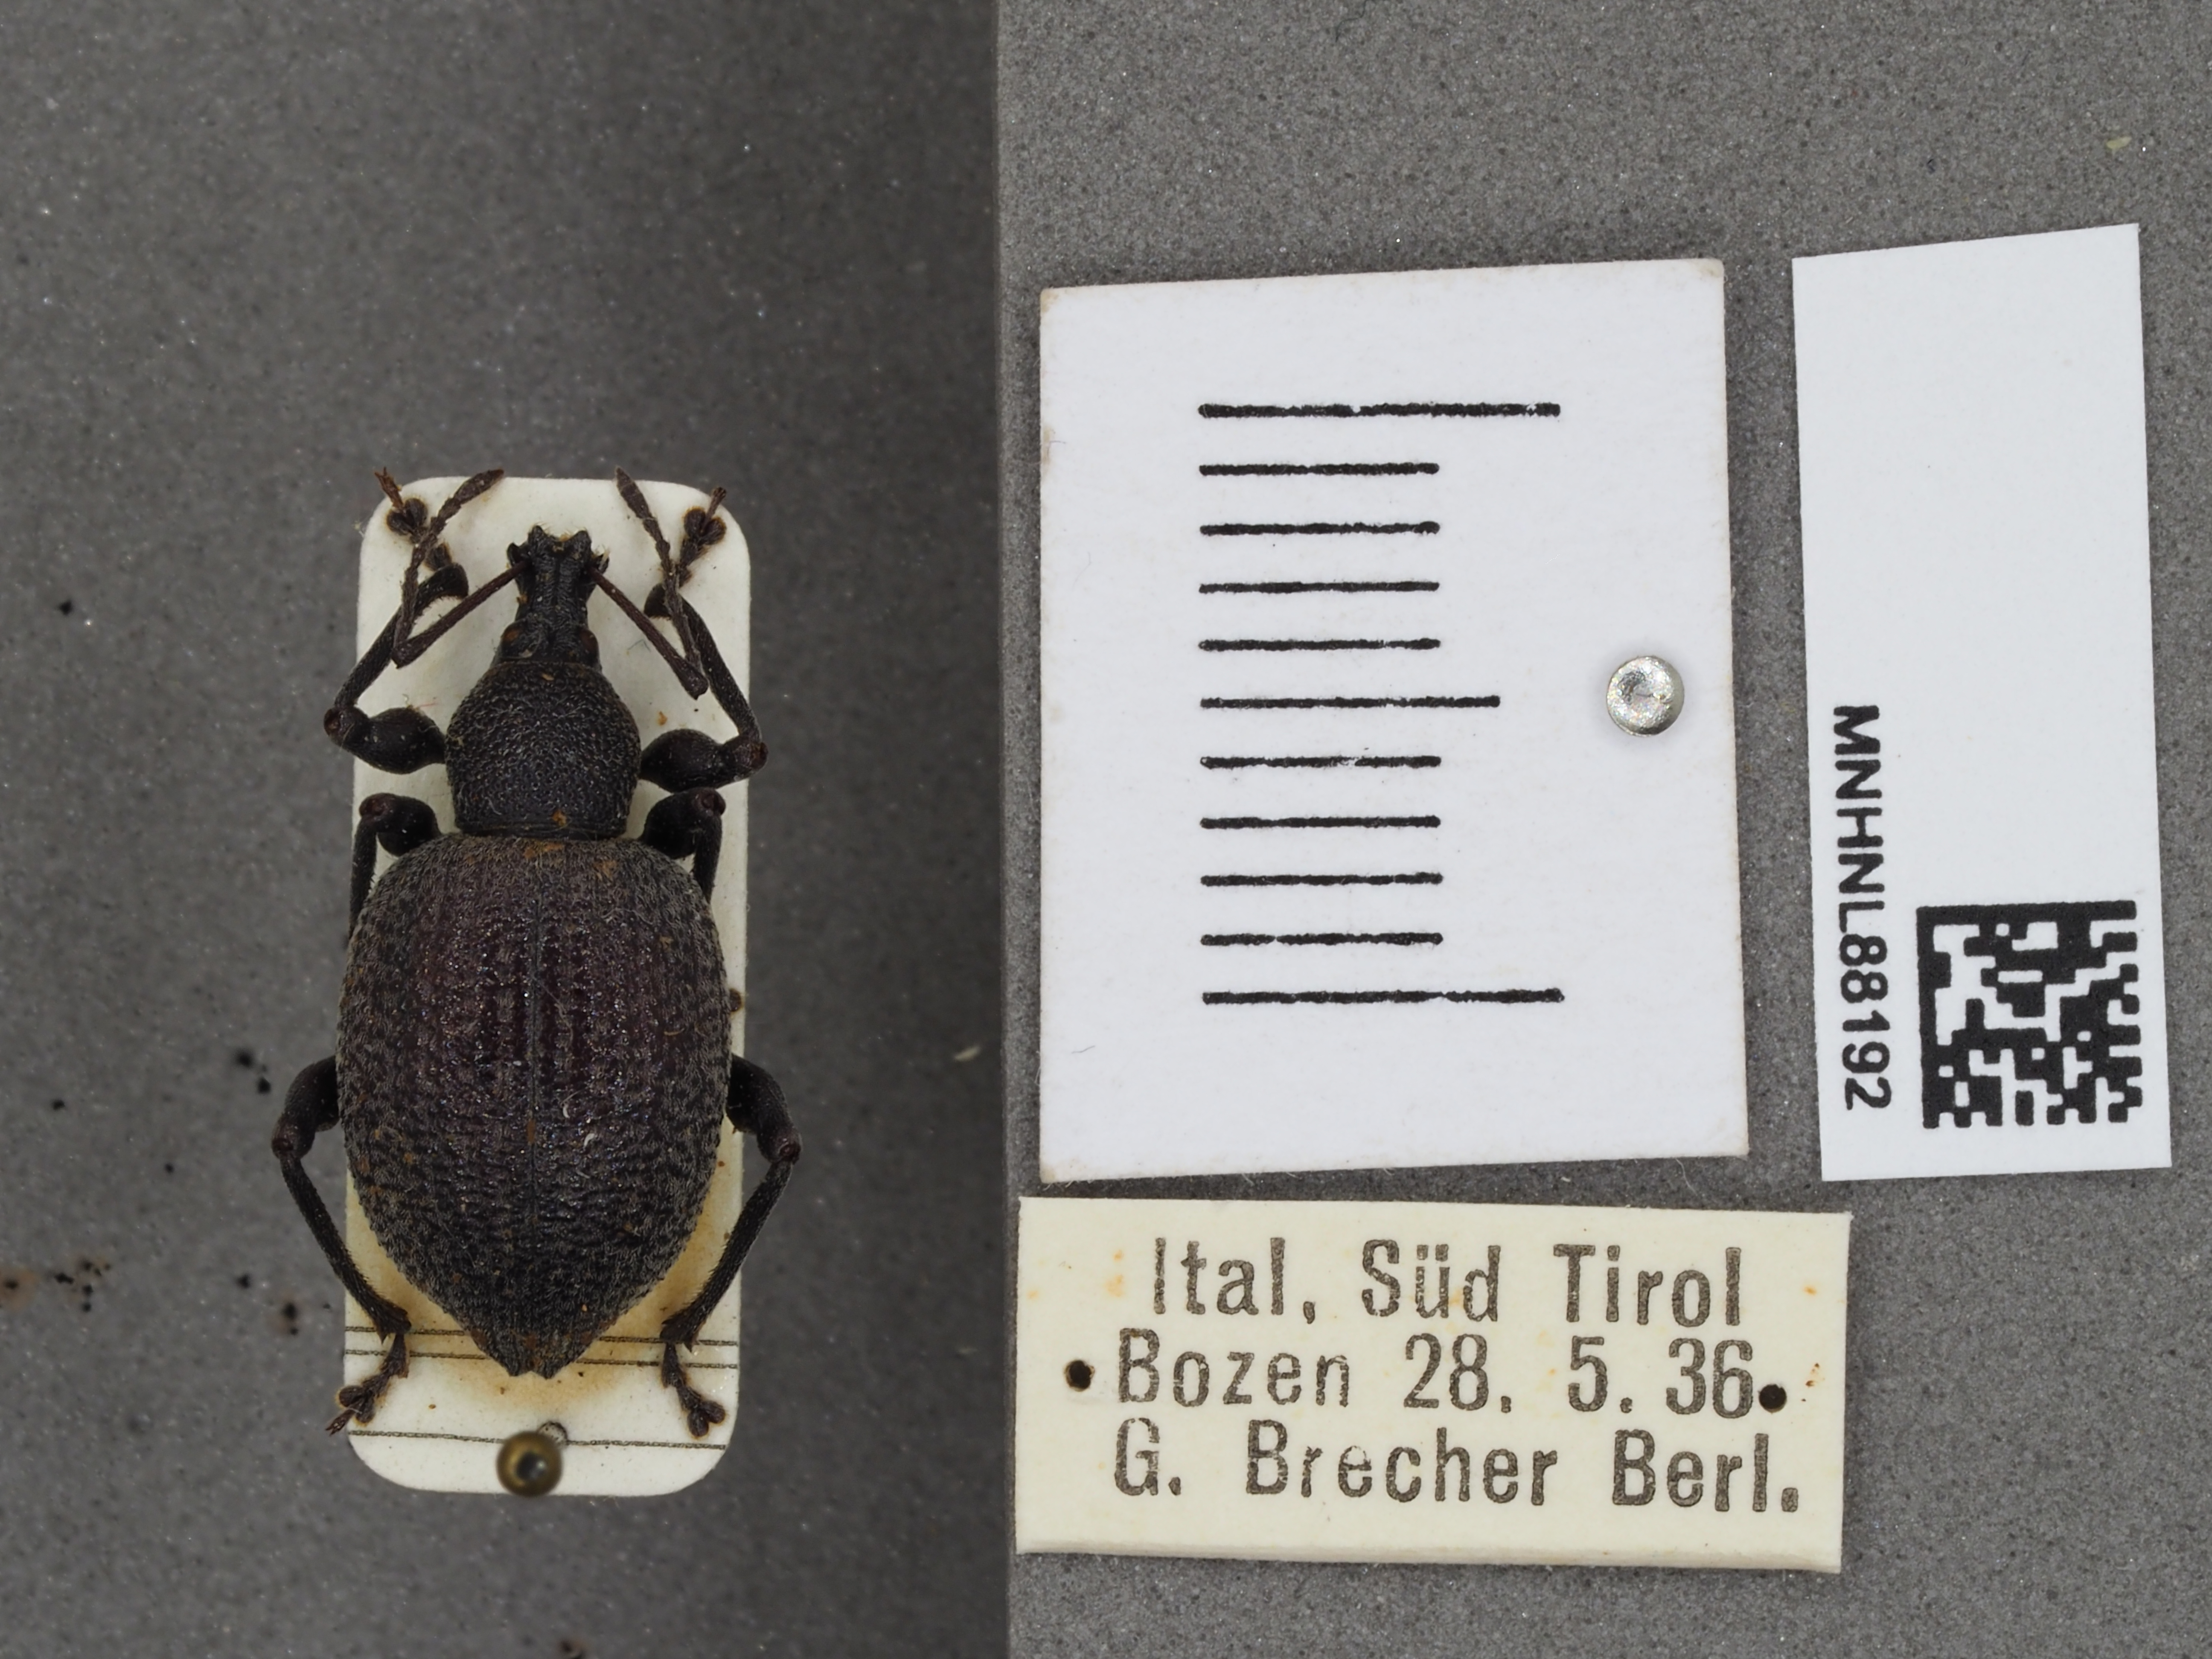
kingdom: Animalia
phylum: Arthropoda
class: Insecta
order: Coleoptera
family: Curculionidae
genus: Otiorhynchus
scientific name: Otiorhynchus
